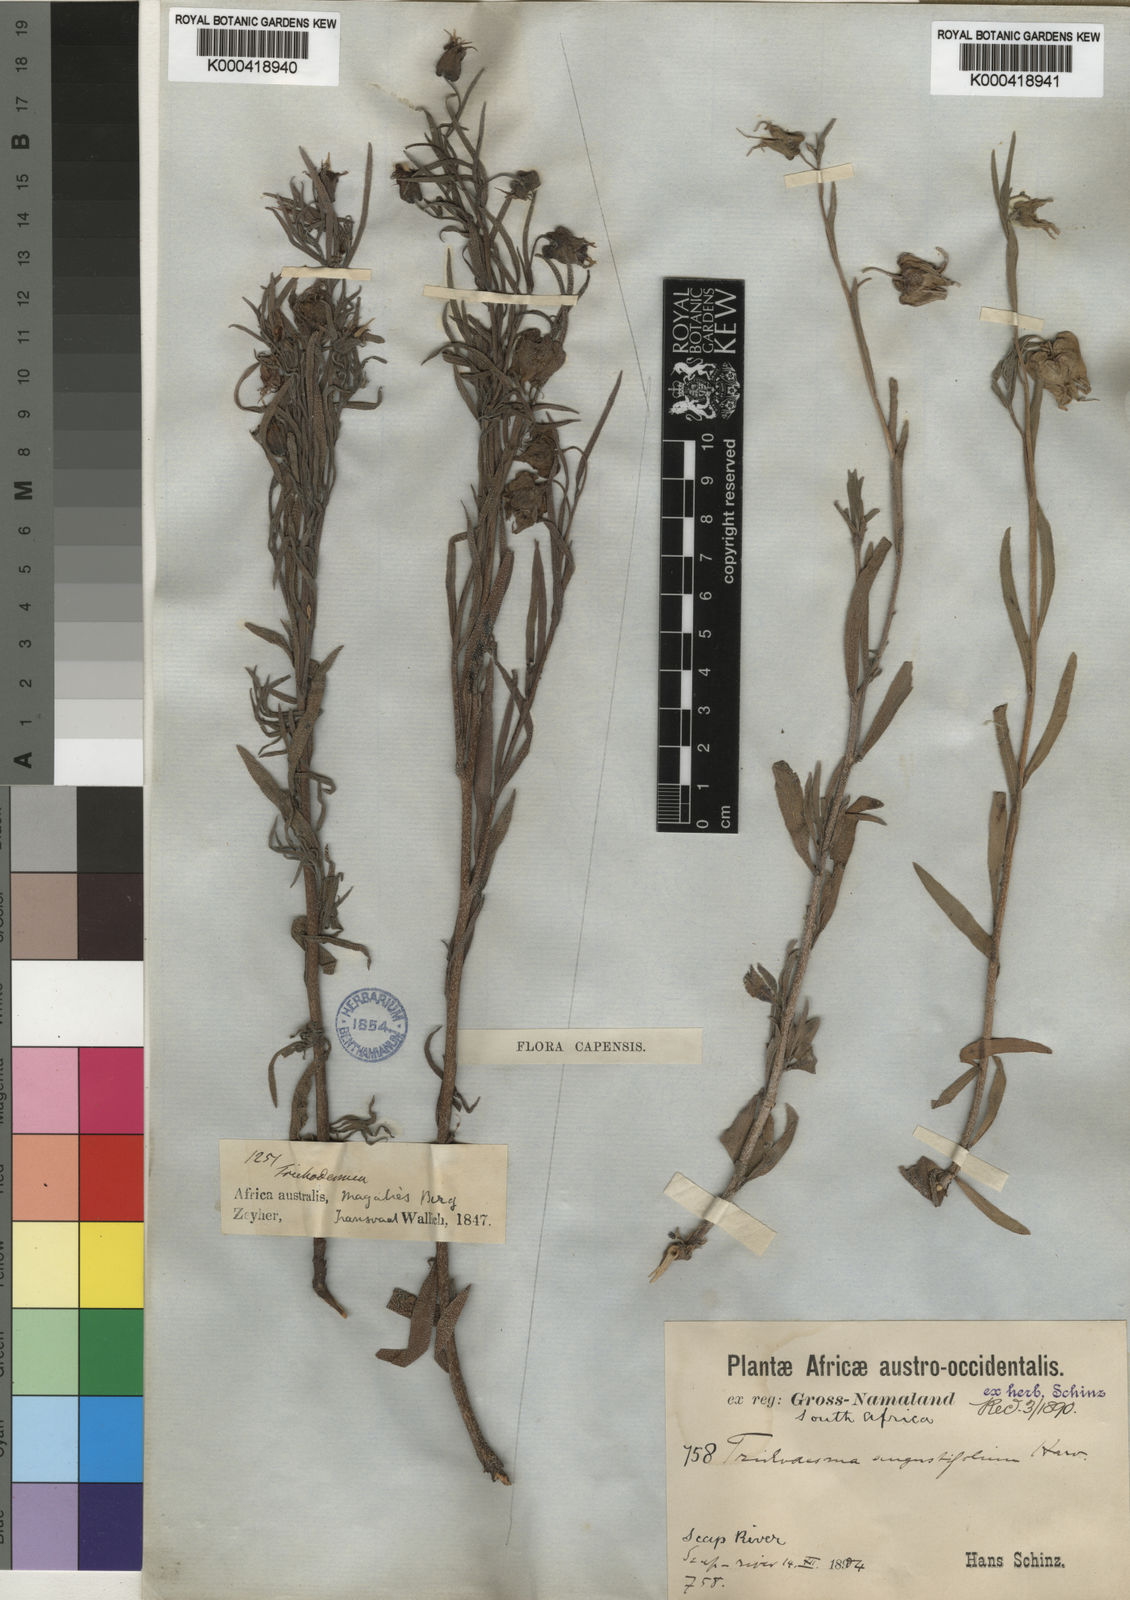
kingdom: Plantae
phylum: Tracheophyta
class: Magnoliopsida
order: Boraginales
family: Boraginaceae
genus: Trichodesma
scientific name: Trichodesma angustifolium
